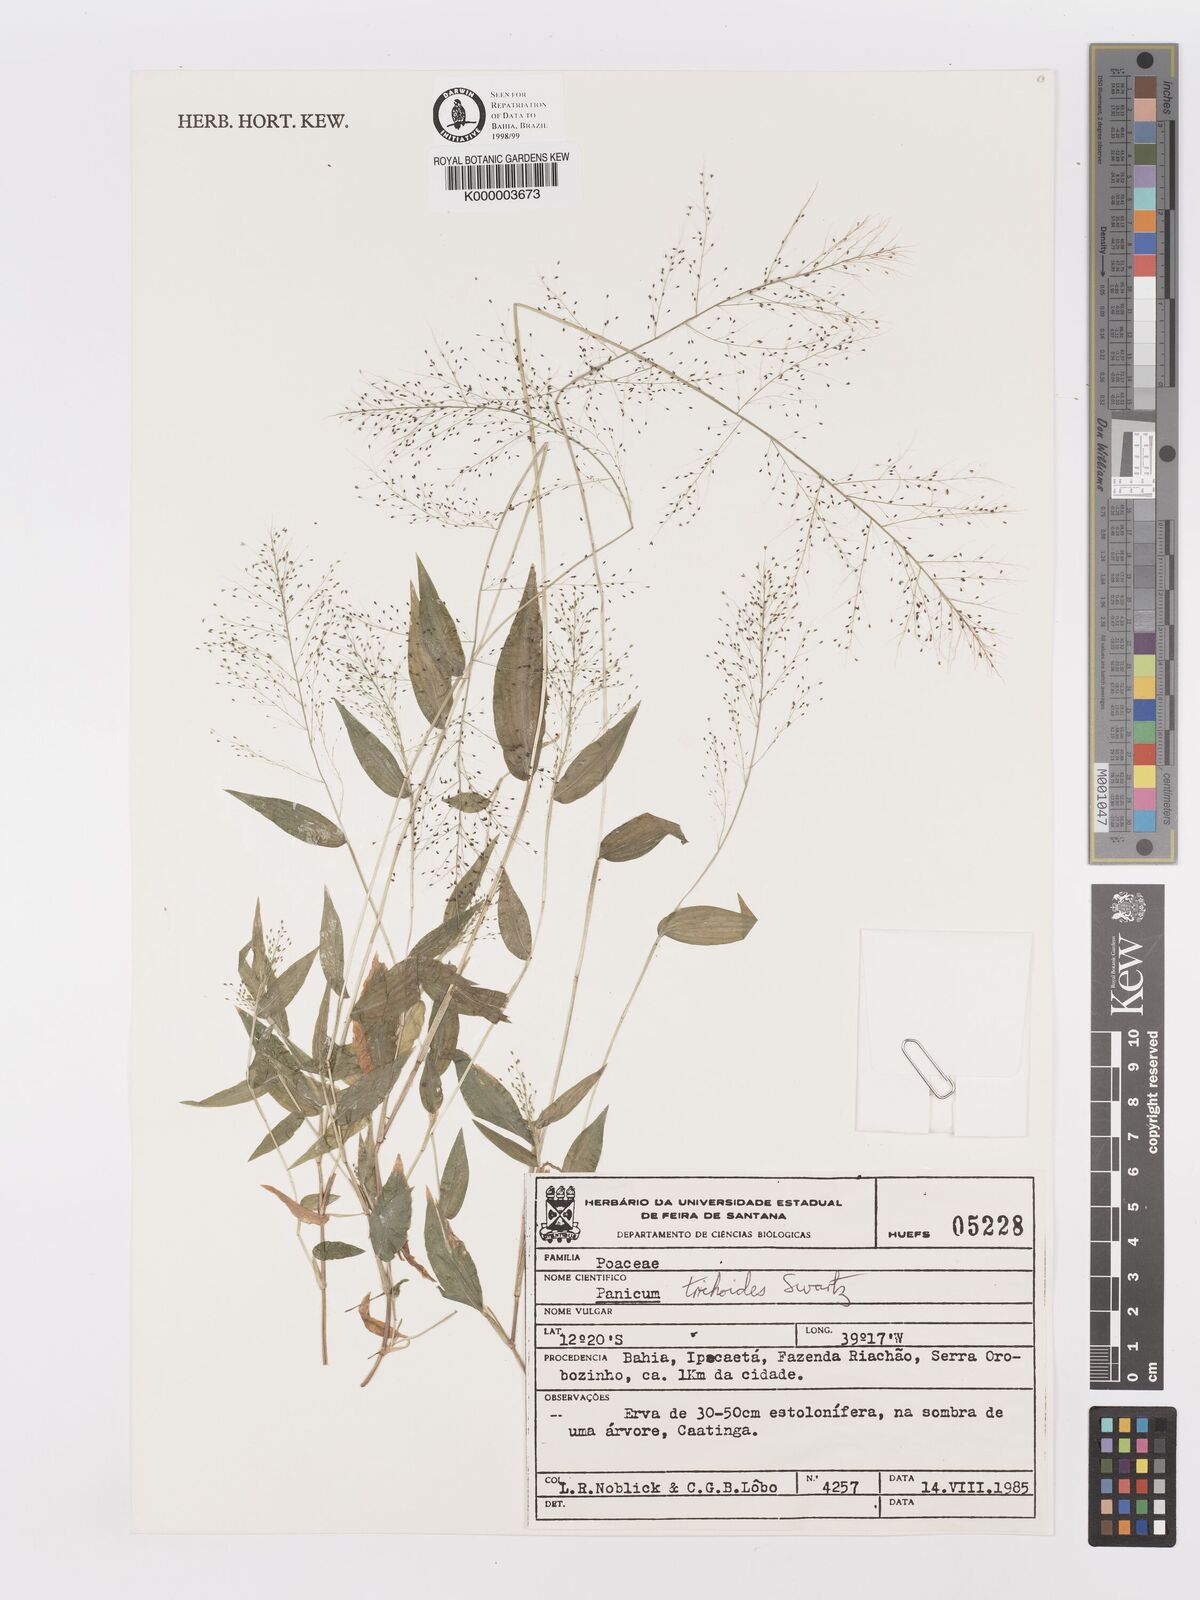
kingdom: Plantae
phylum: Tracheophyta
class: Liliopsida
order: Poales
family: Poaceae
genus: Panicum
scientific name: Panicum
